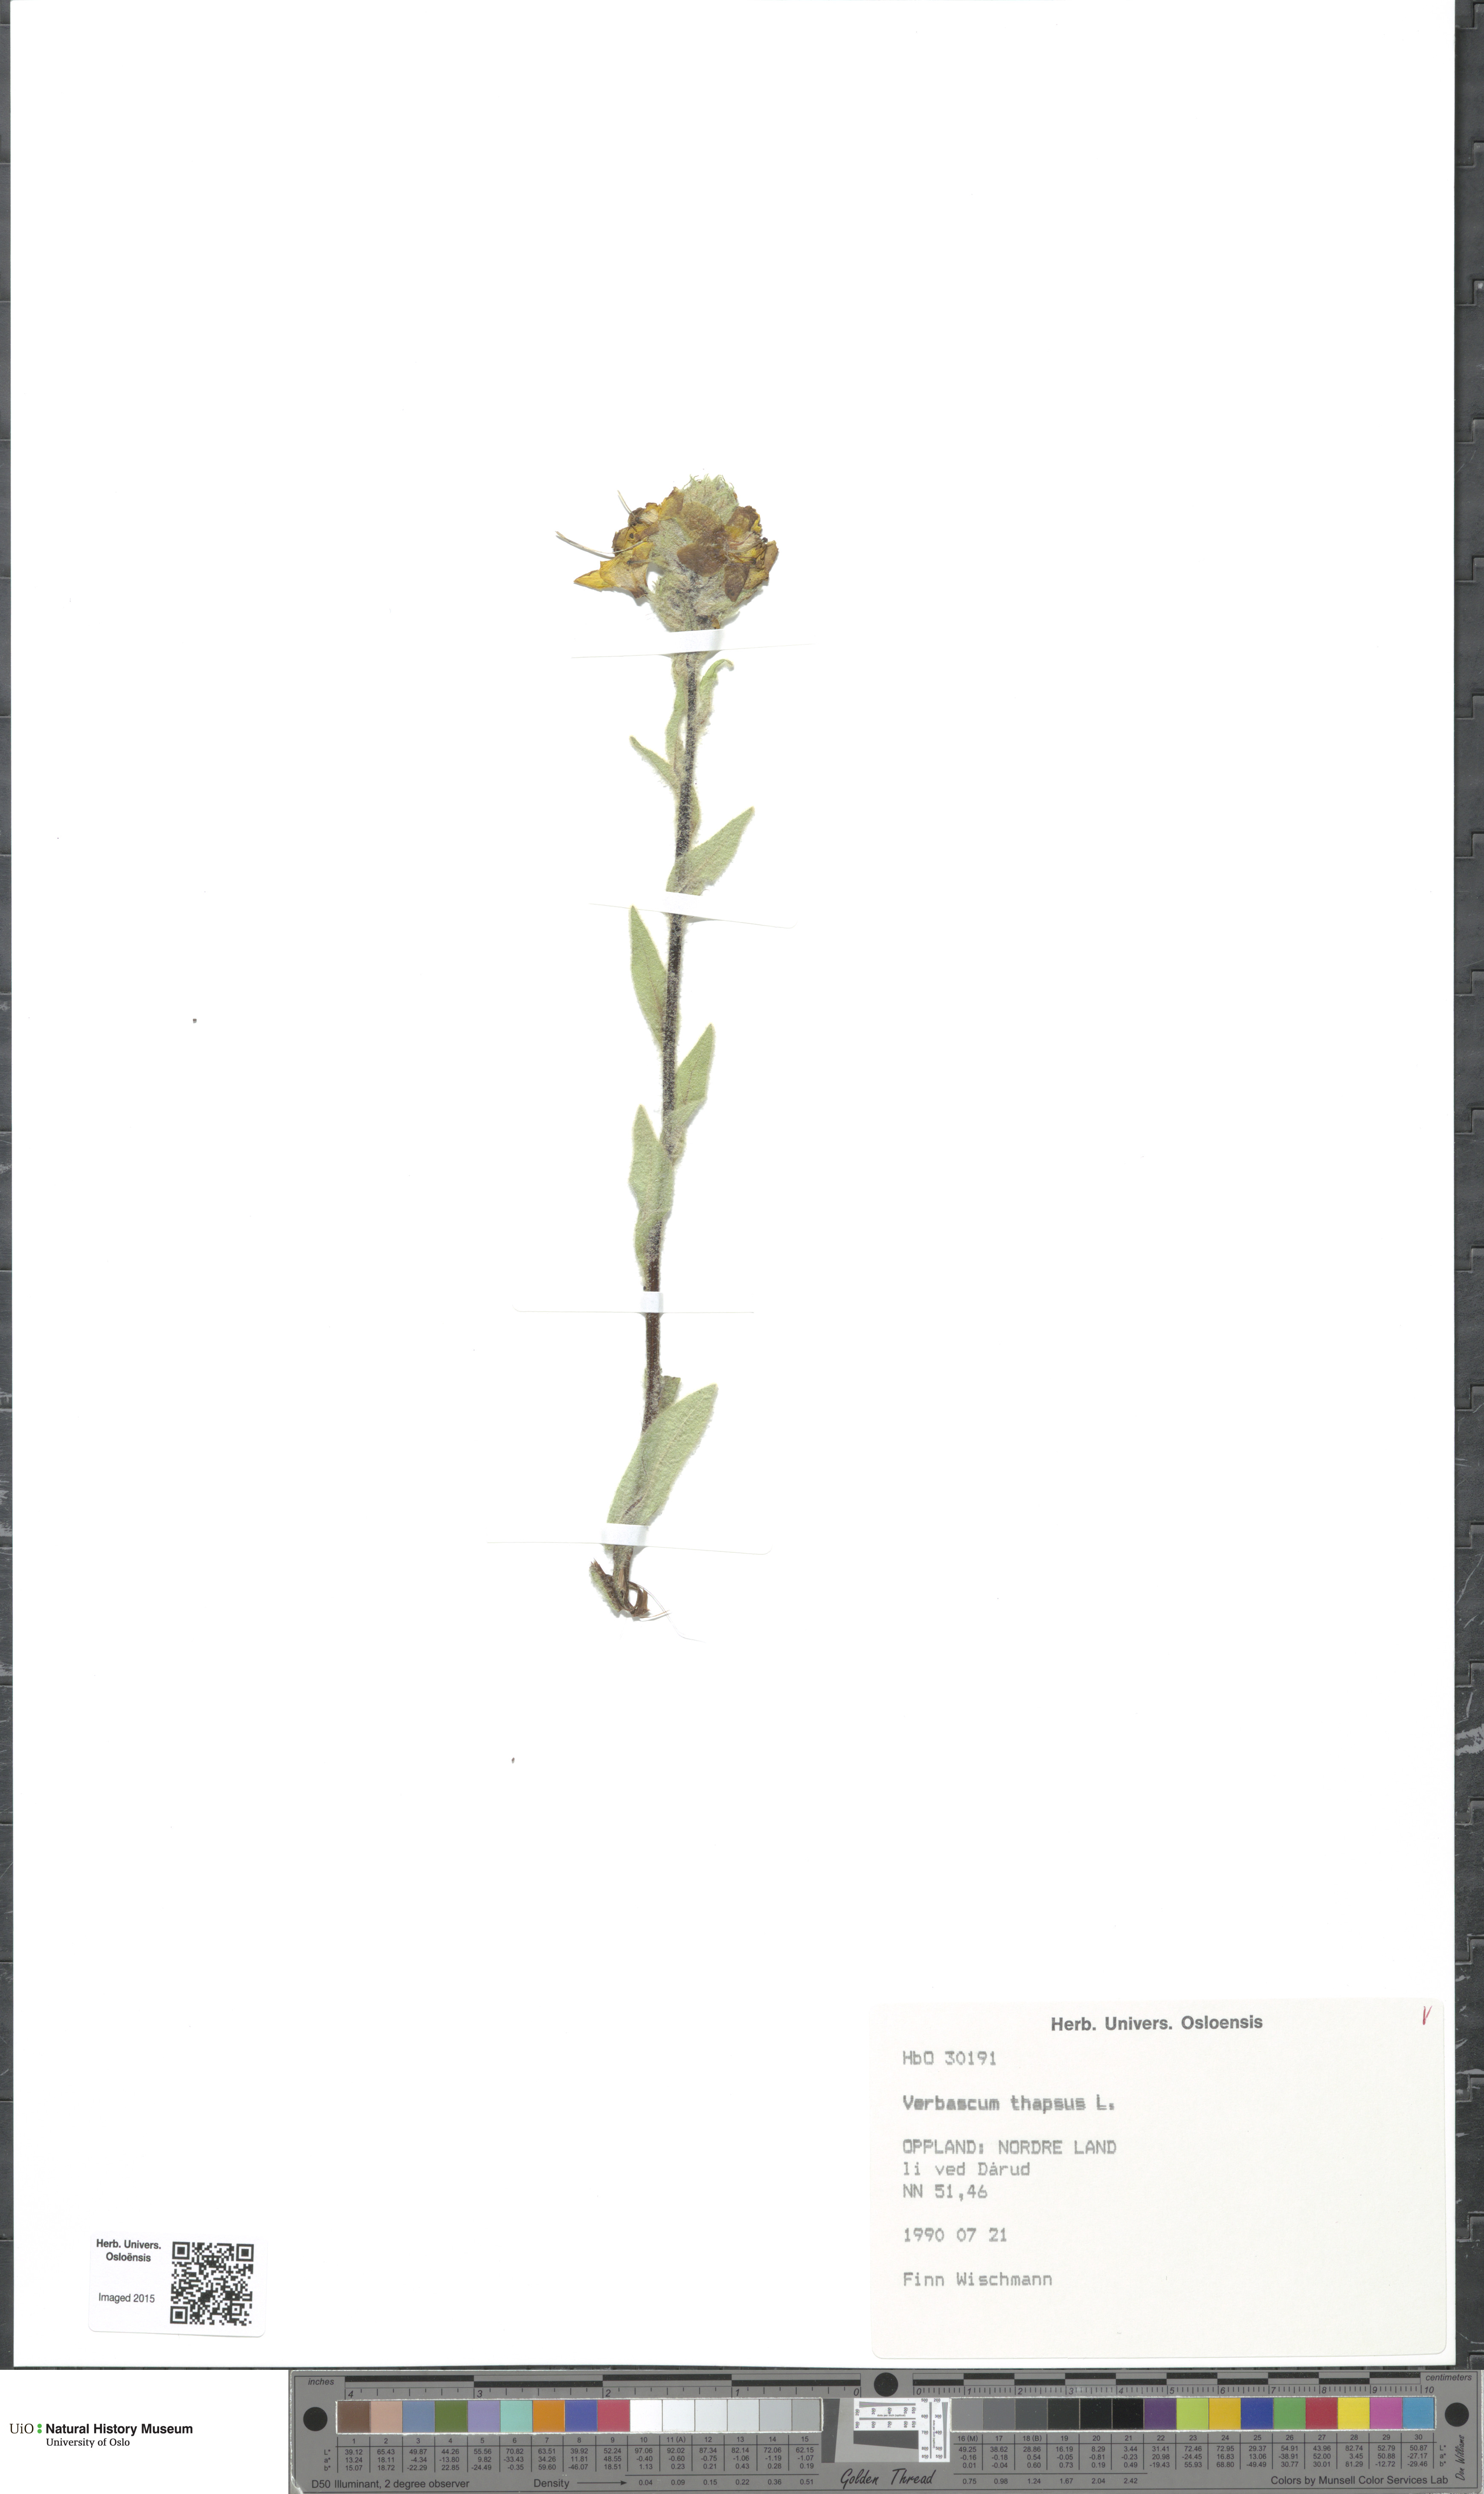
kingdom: Plantae
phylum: Tracheophyta
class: Magnoliopsida
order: Lamiales
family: Scrophulariaceae
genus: Verbascum
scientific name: Verbascum thapsus
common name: Common mullein
